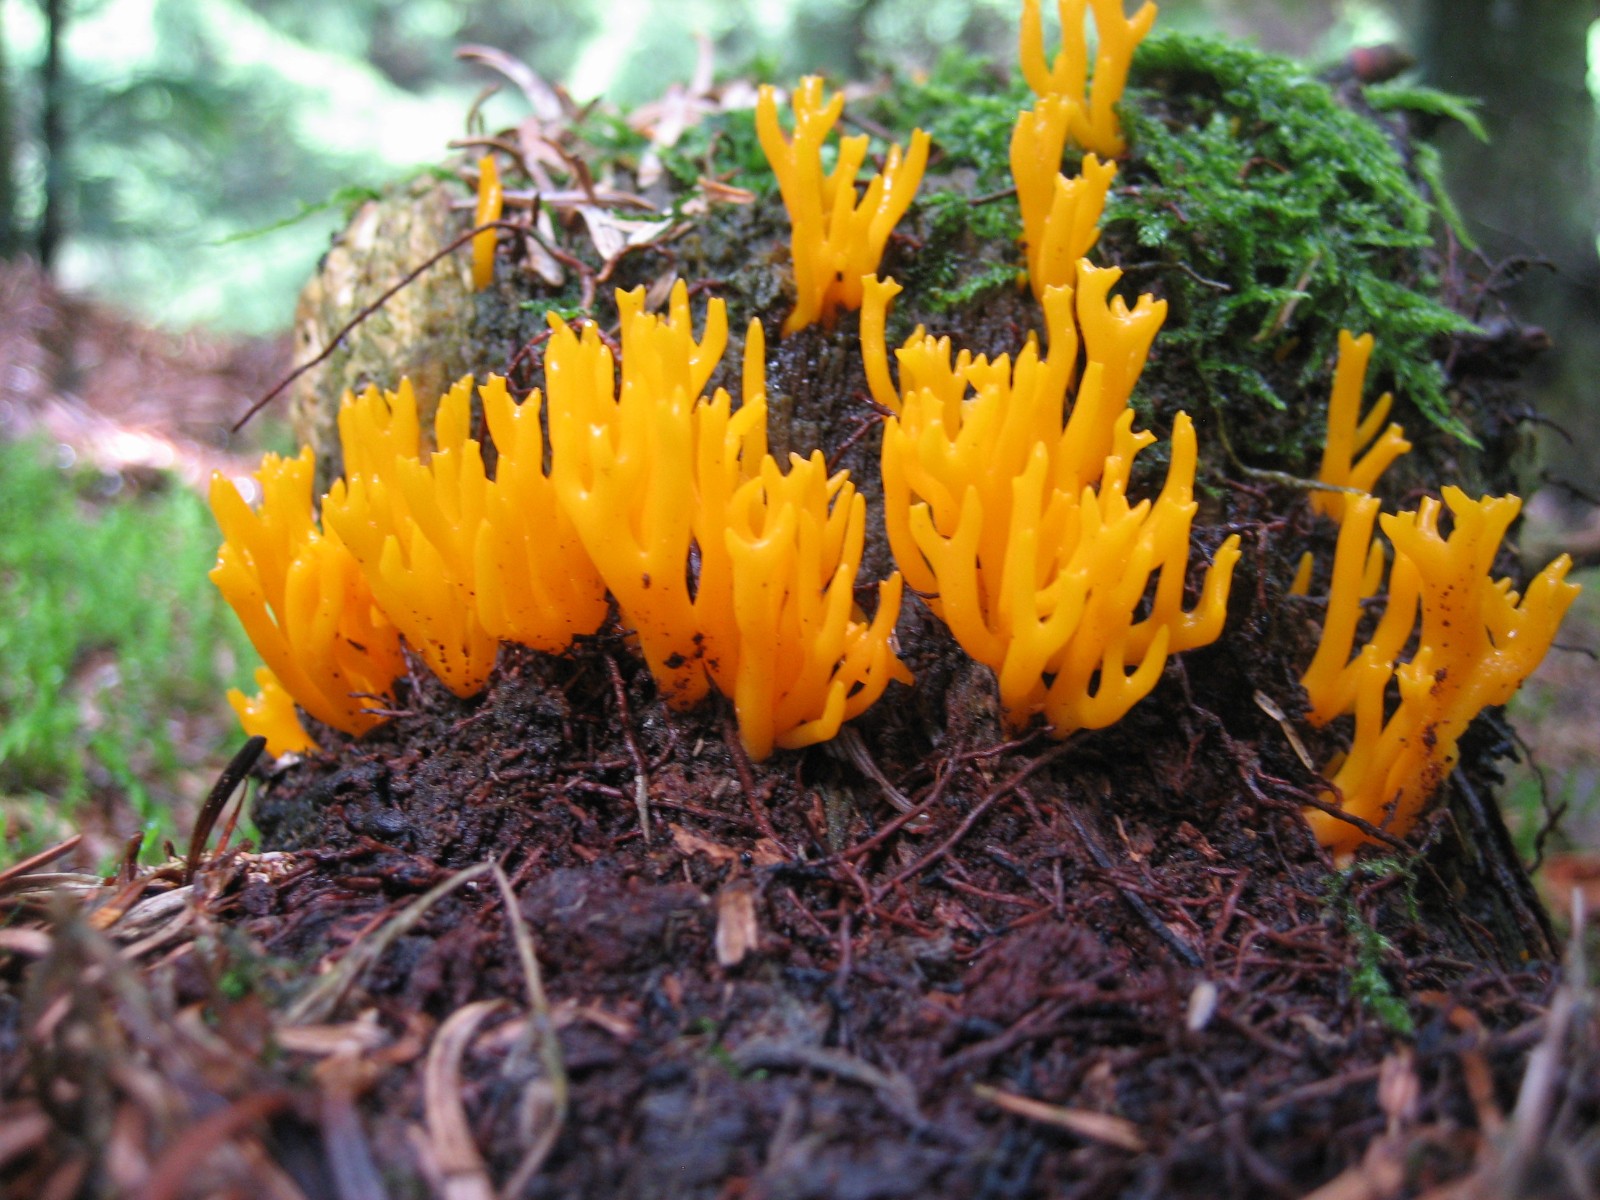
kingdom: Fungi
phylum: Basidiomycota
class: Dacrymycetes
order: Dacrymycetales
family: Dacrymycetaceae
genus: Calocera
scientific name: Calocera viscosa
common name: almindelig guldgaffel
